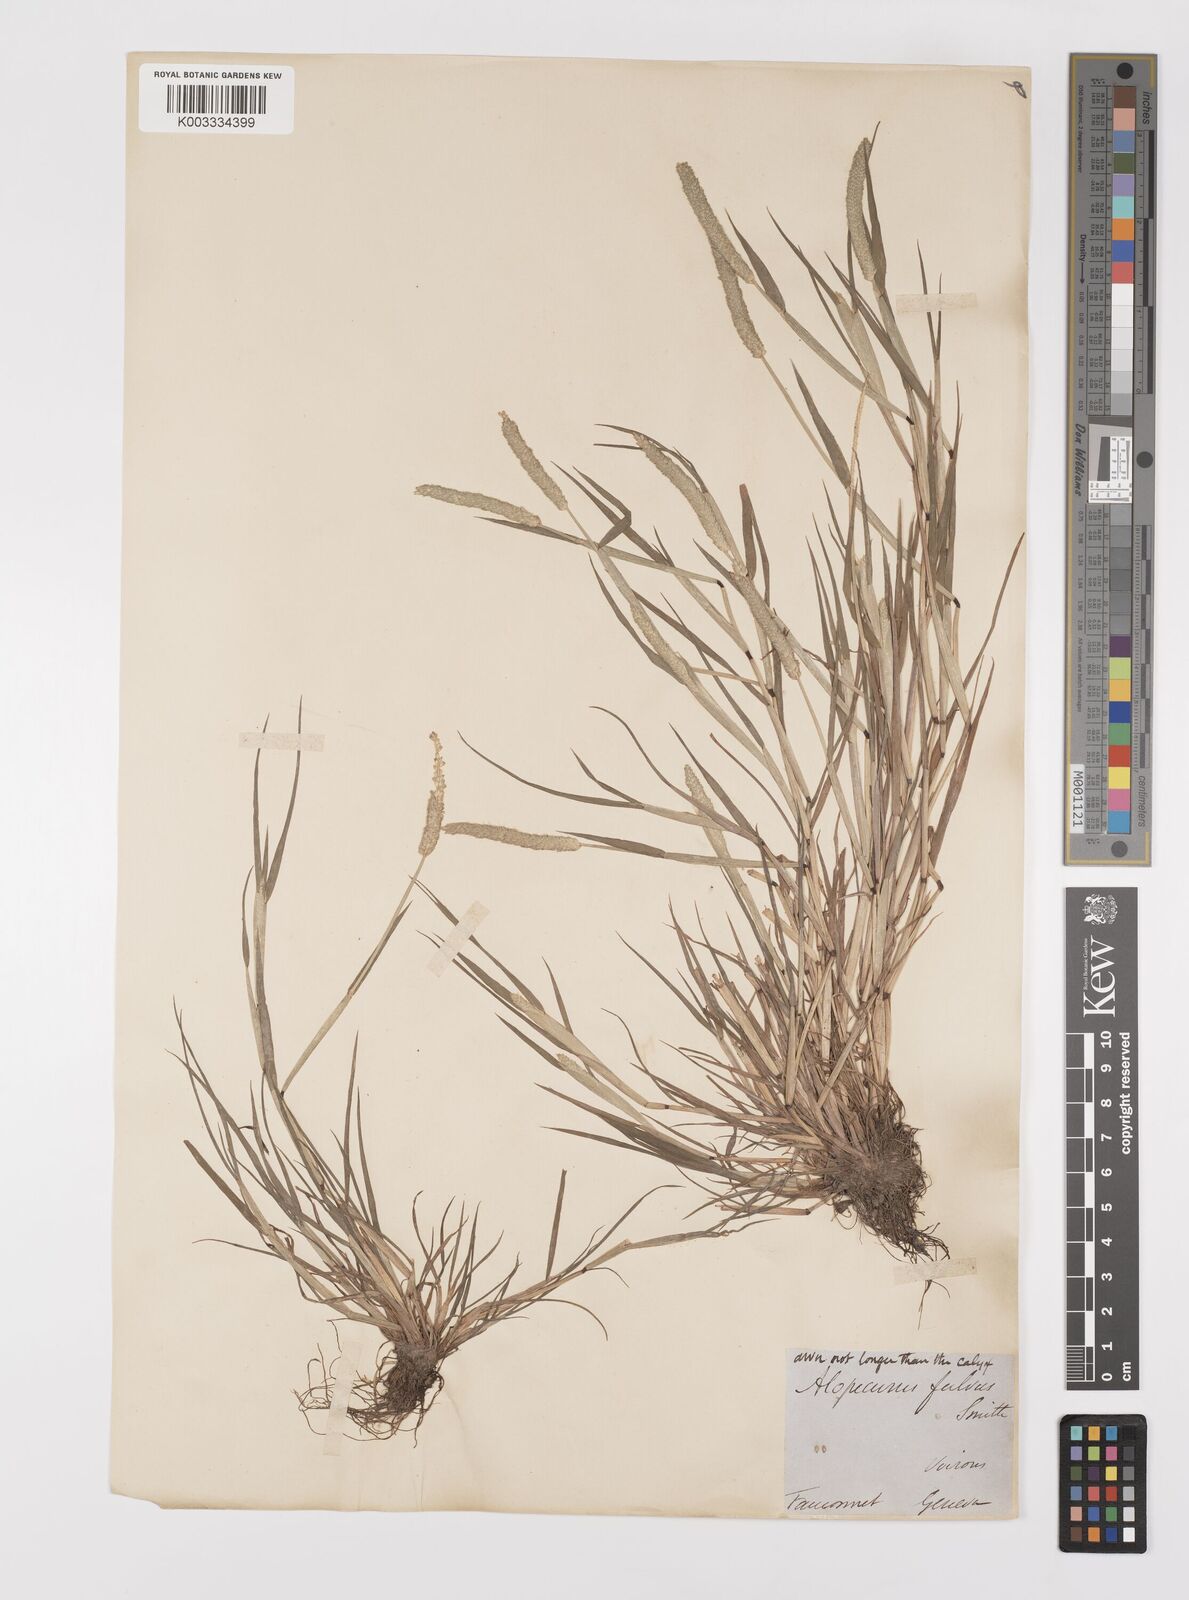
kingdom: Plantae
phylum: Tracheophyta
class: Liliopsida
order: Poales
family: Poaceae
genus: Alopecurus
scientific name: Alopecurus aequalis
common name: Orange foxtail
